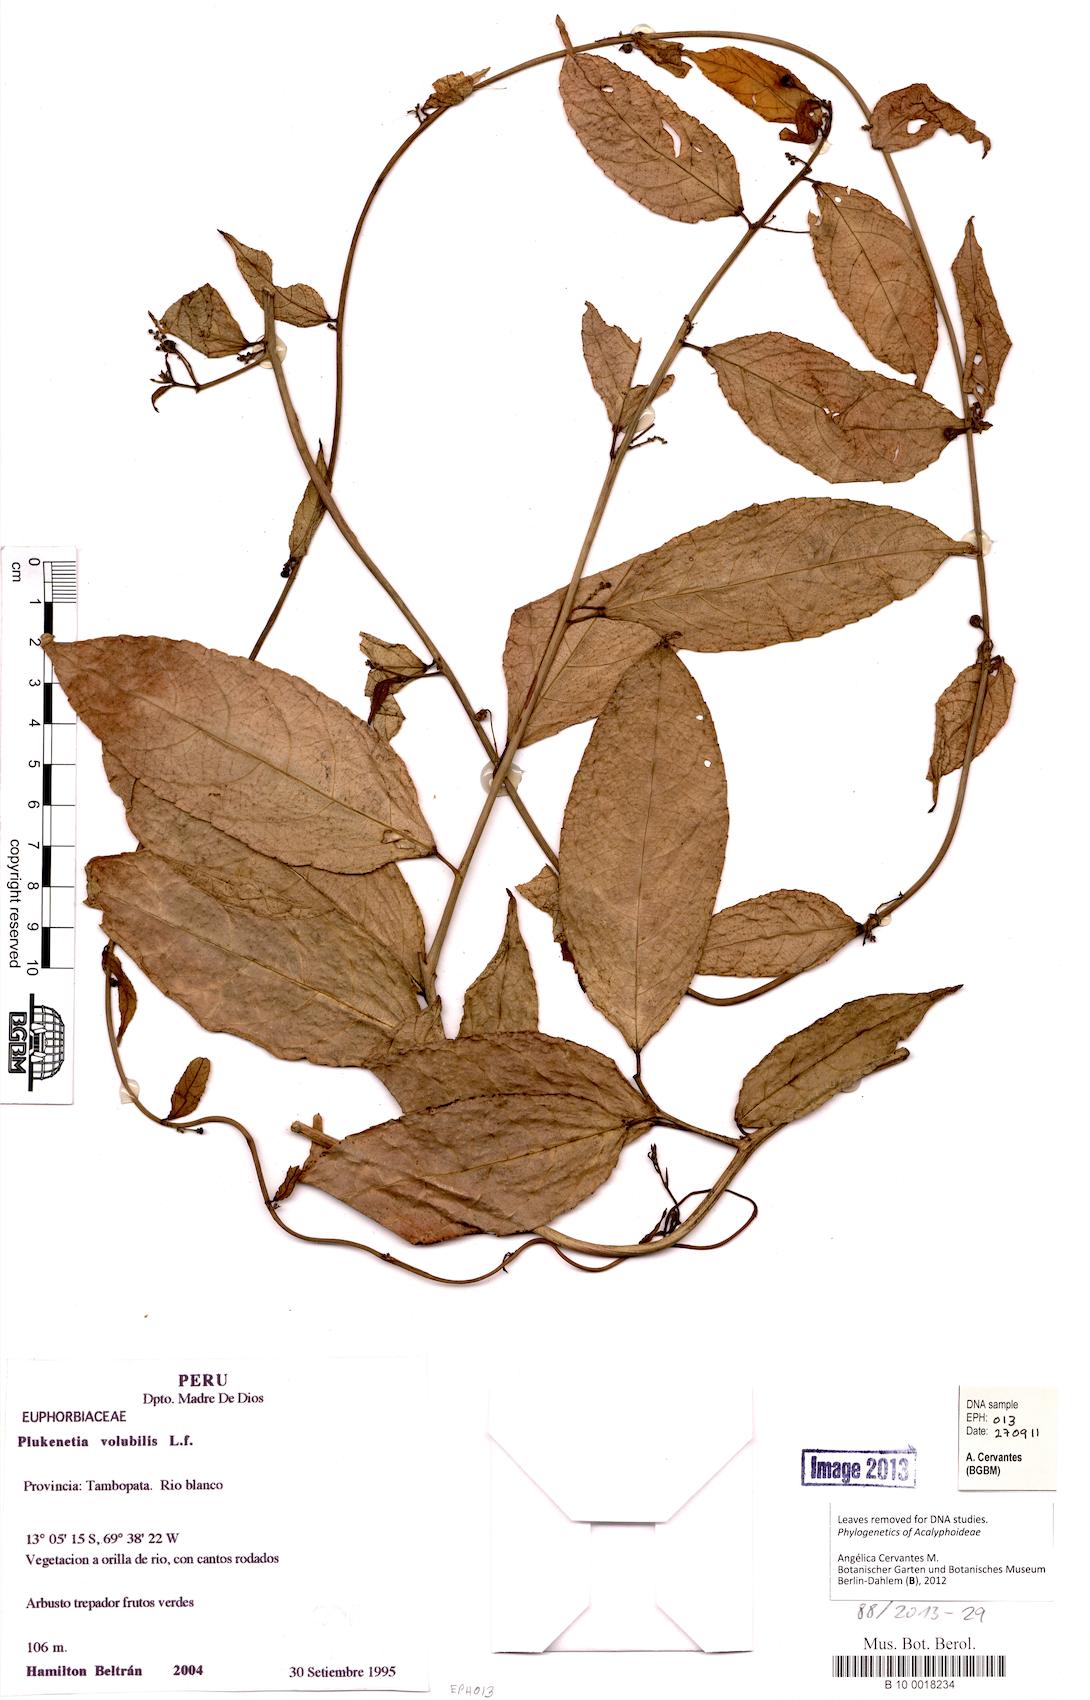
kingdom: Plantae
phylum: Tracheophyta
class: Magnoliopsida
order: Malpighiales
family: Euphorbiaceae
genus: Plukenetia
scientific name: Plukenetia volubilis
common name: Inca-peanut
